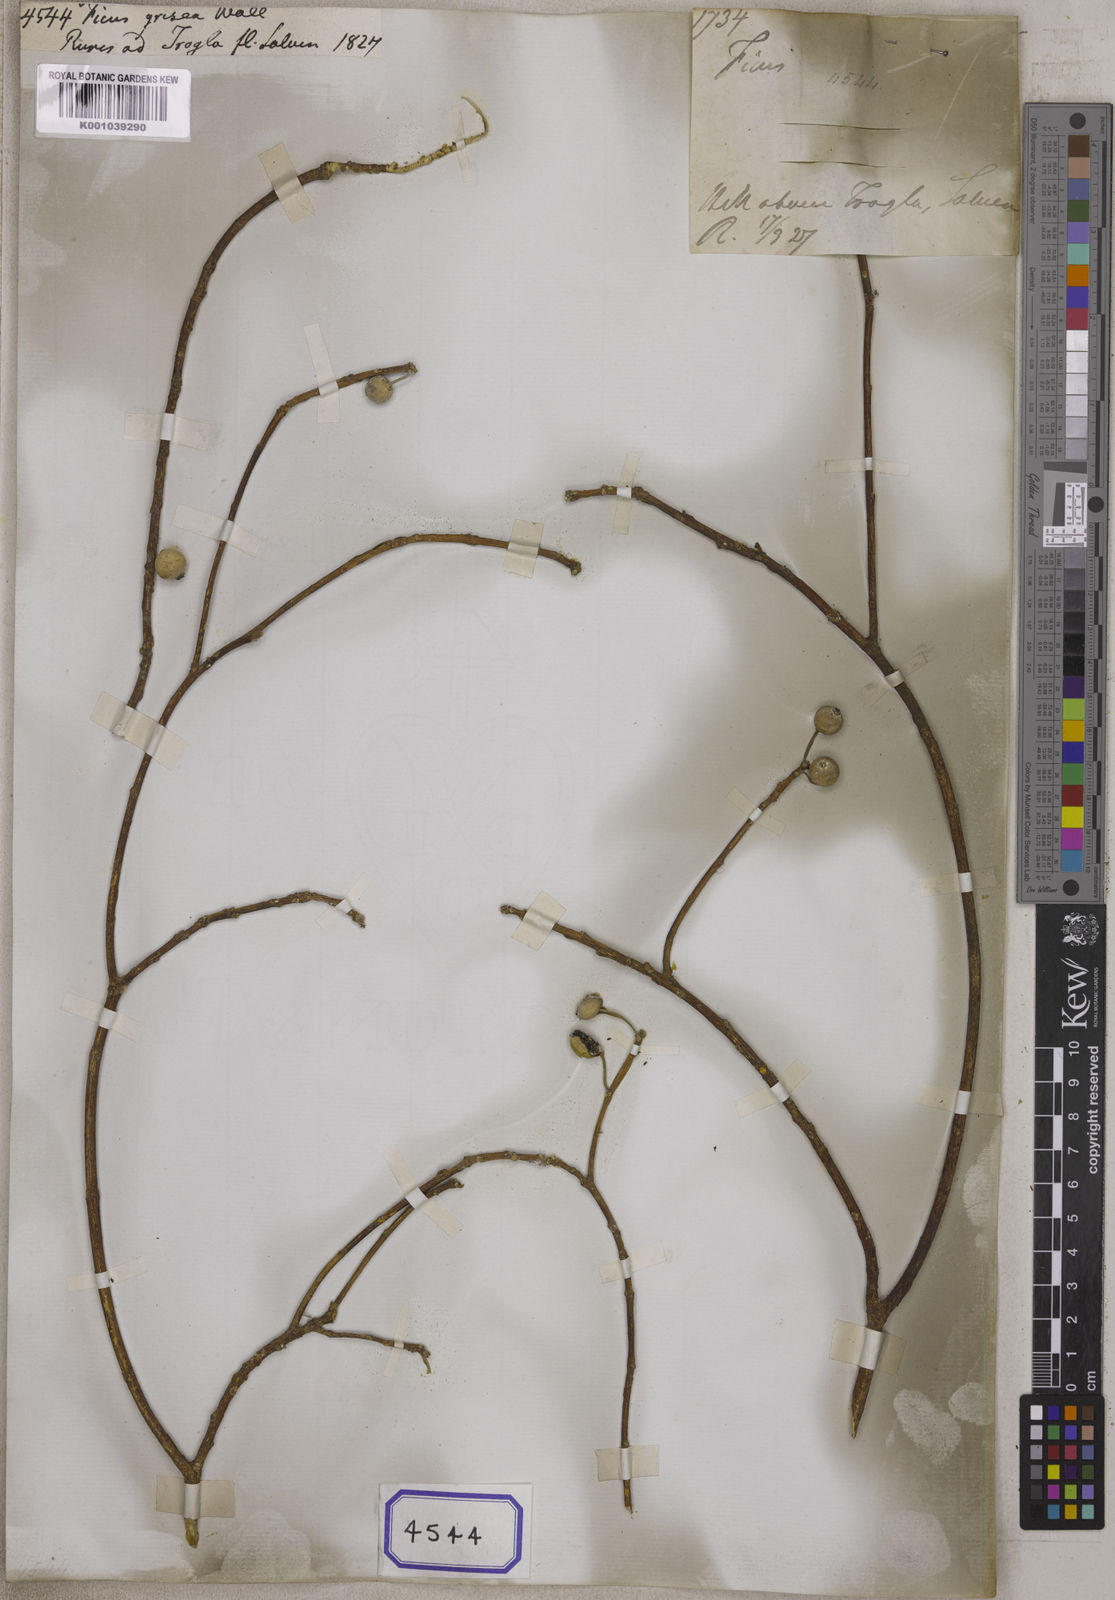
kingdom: Plantae
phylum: Tracheophyta
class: Magnoliopsida
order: Rosales
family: Moraceae
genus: Ficus
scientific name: Ficus
